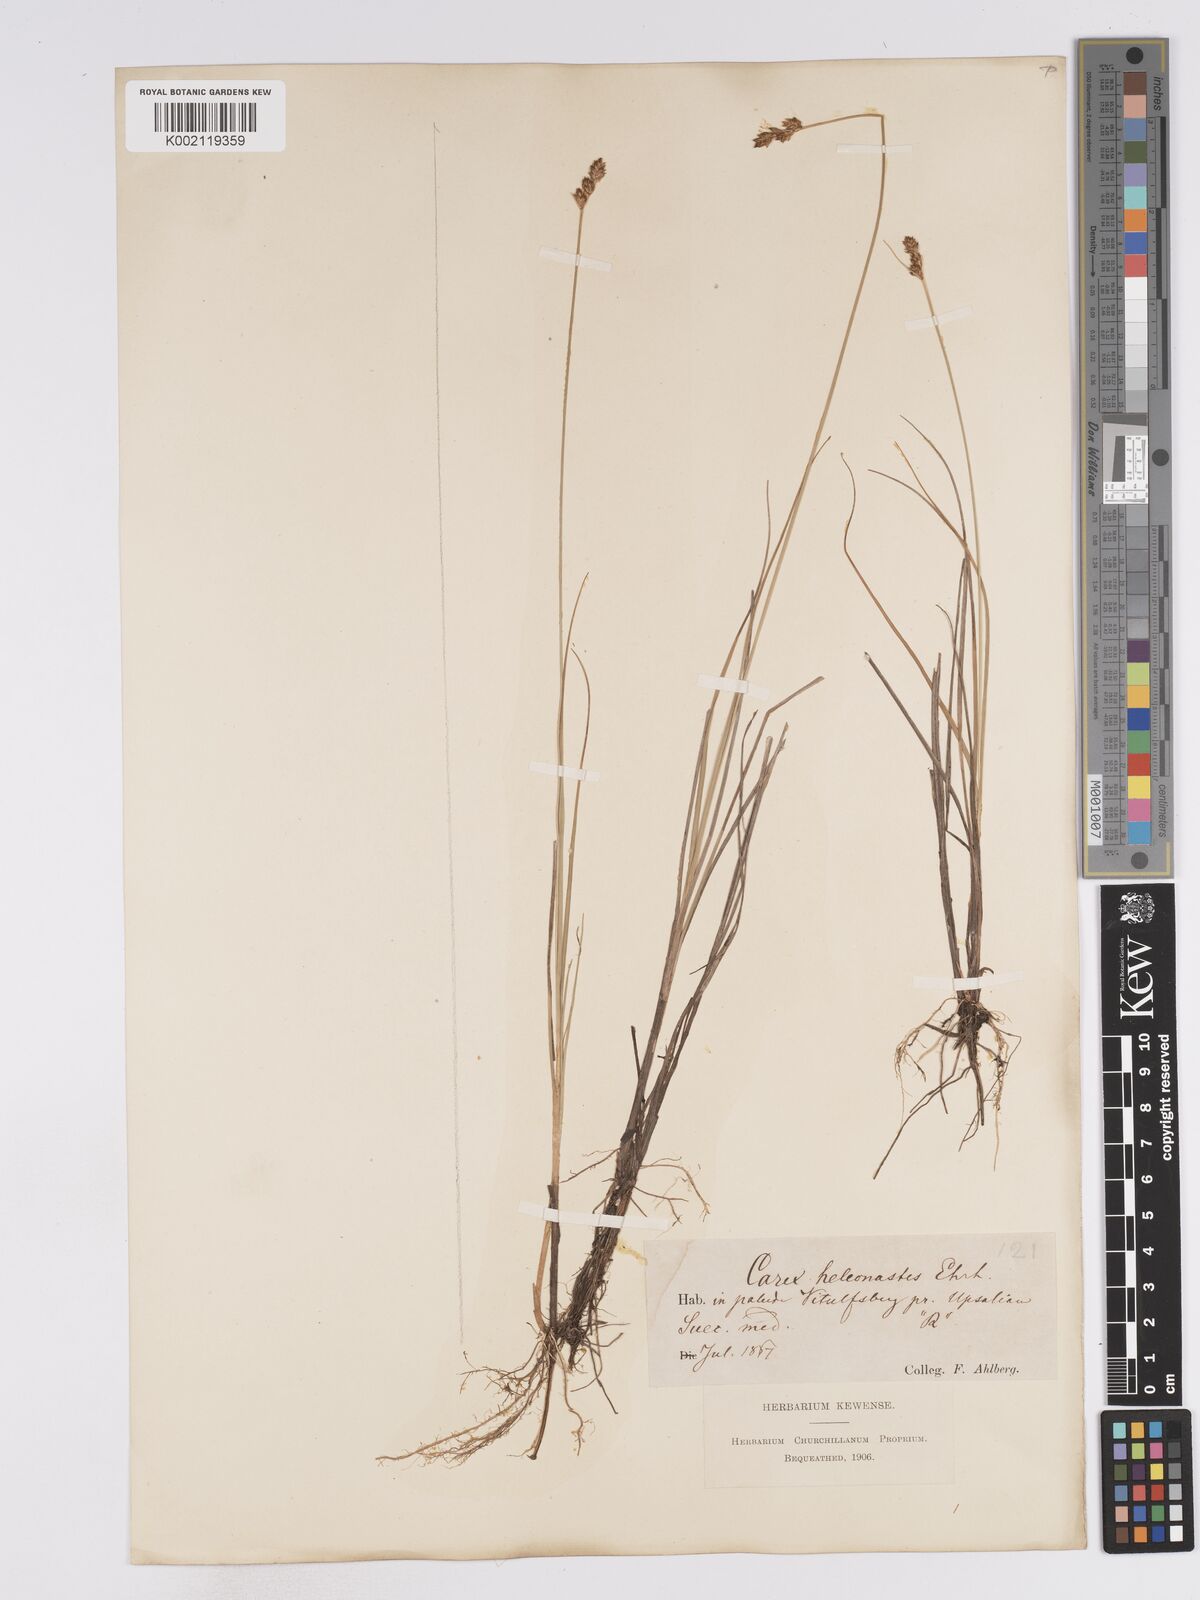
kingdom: Plantae
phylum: Tracheophyta
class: Liliopsida
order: Poales
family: Cyperaceae
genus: Carex
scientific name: Carex heleonastes
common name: Hudson bay sedge
